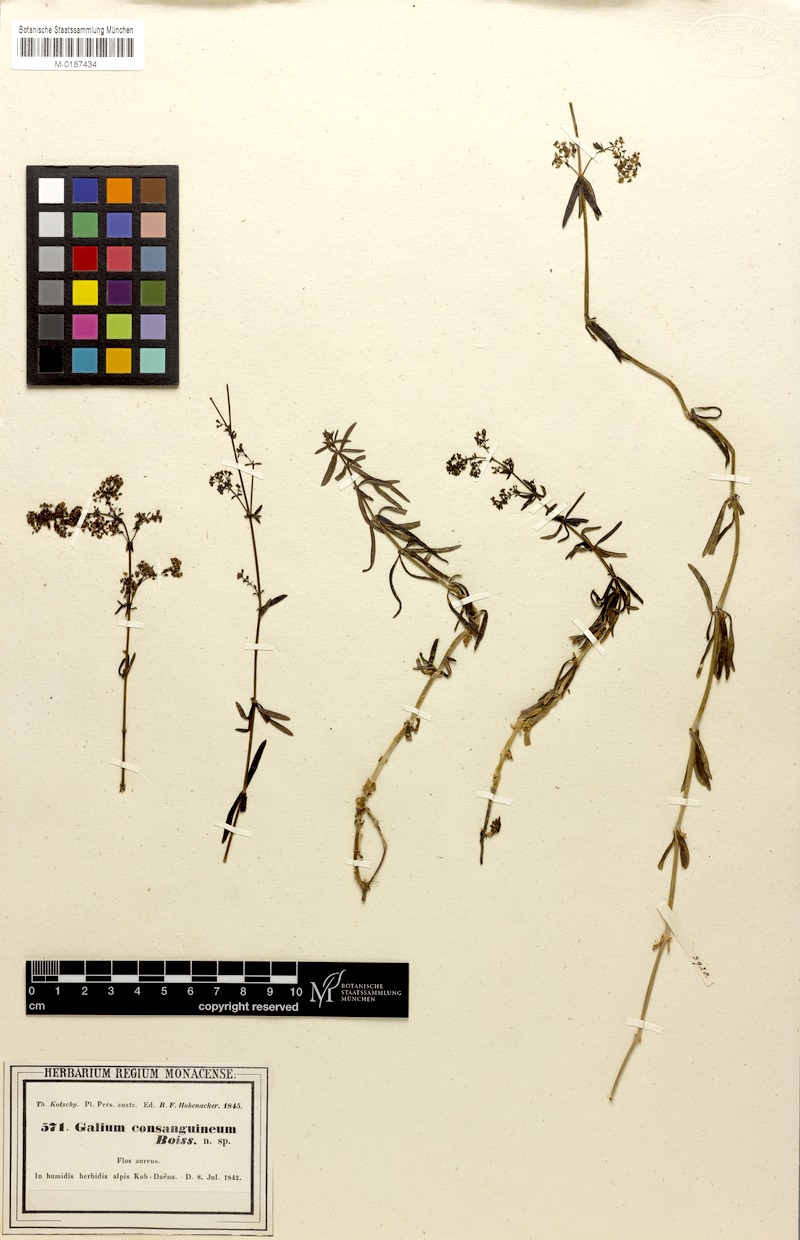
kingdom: Plantae
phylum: Tracheophyta
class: Magnoliopsida
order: Gentianales
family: Rubiaceae
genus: Galium
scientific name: Galium consanguineum
